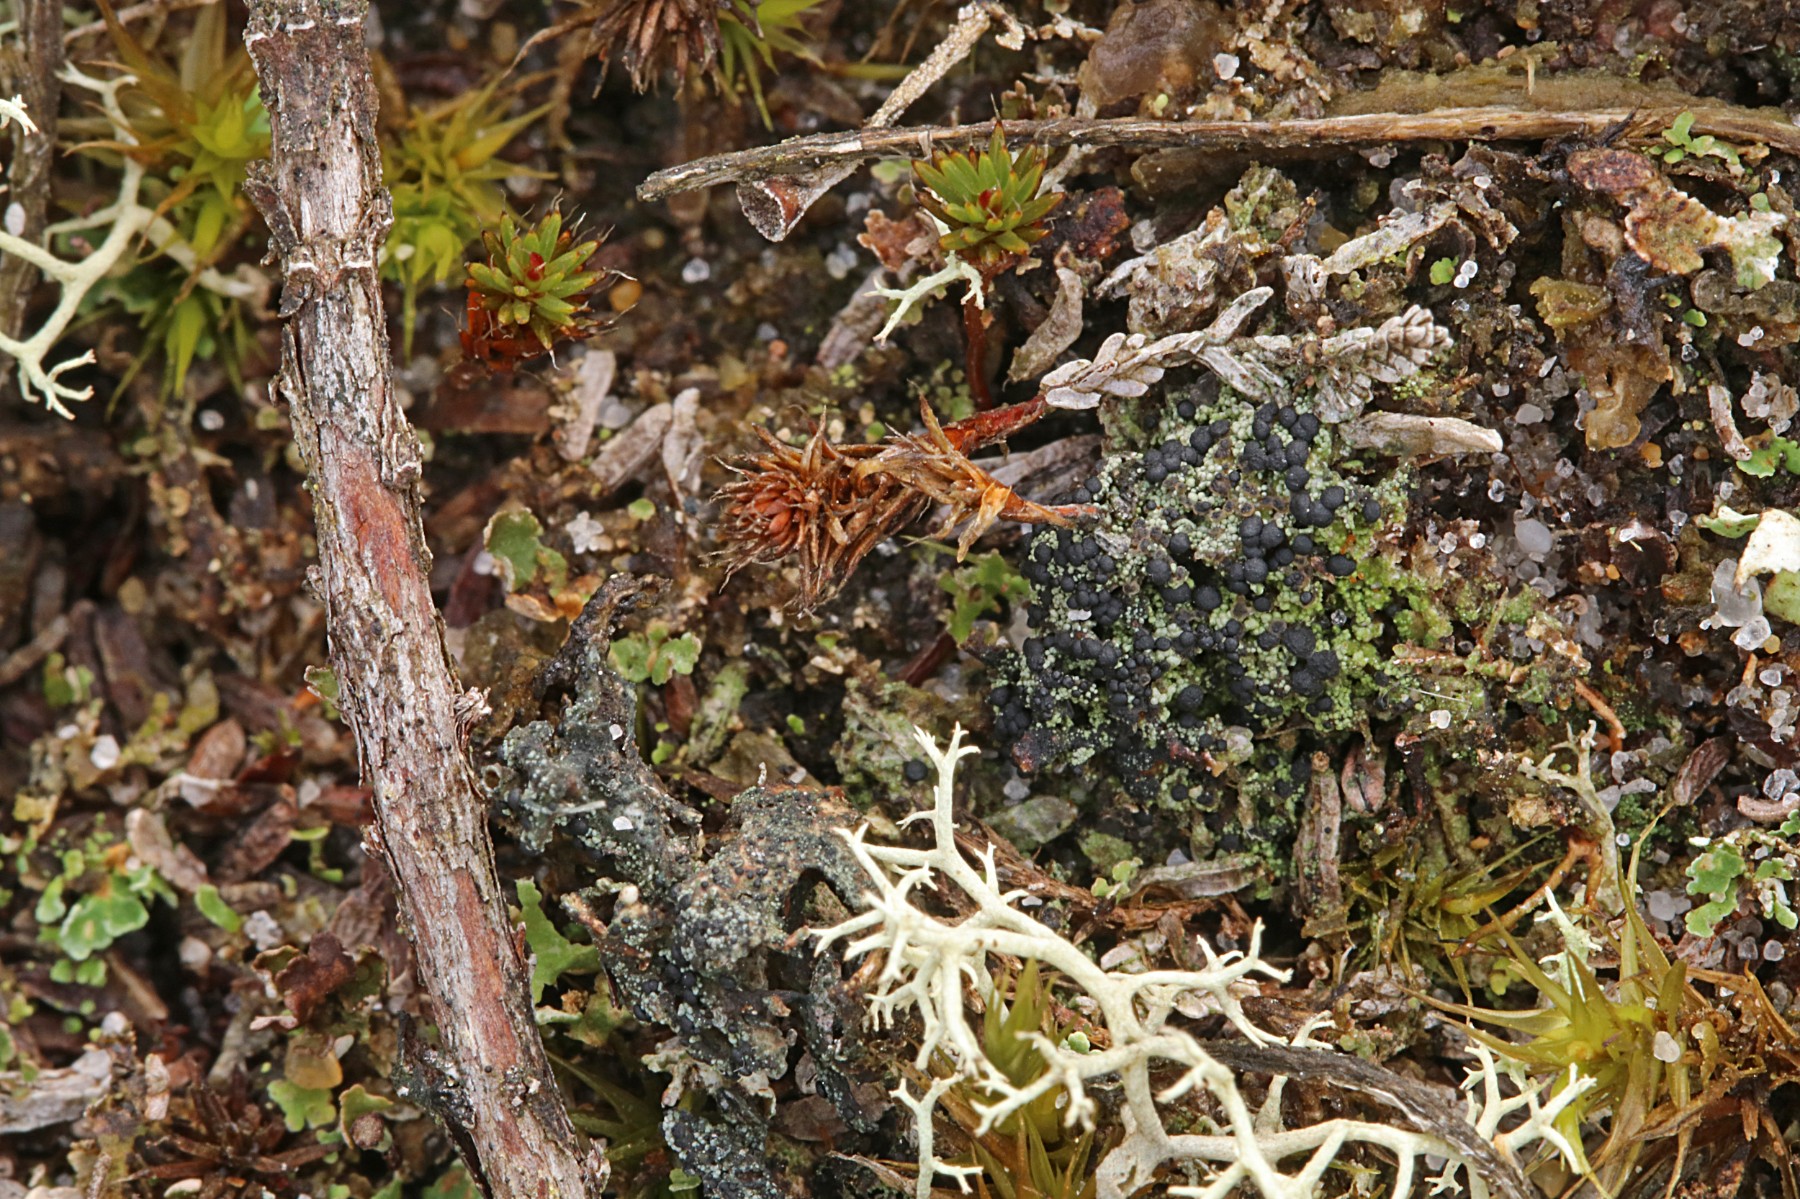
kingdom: Fungi
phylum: Ascomycota
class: Lecanoromycetes
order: Lecanorales
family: Byssolomataceae
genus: Micarea
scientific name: Micarea lignaria
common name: tørve-knaplav
